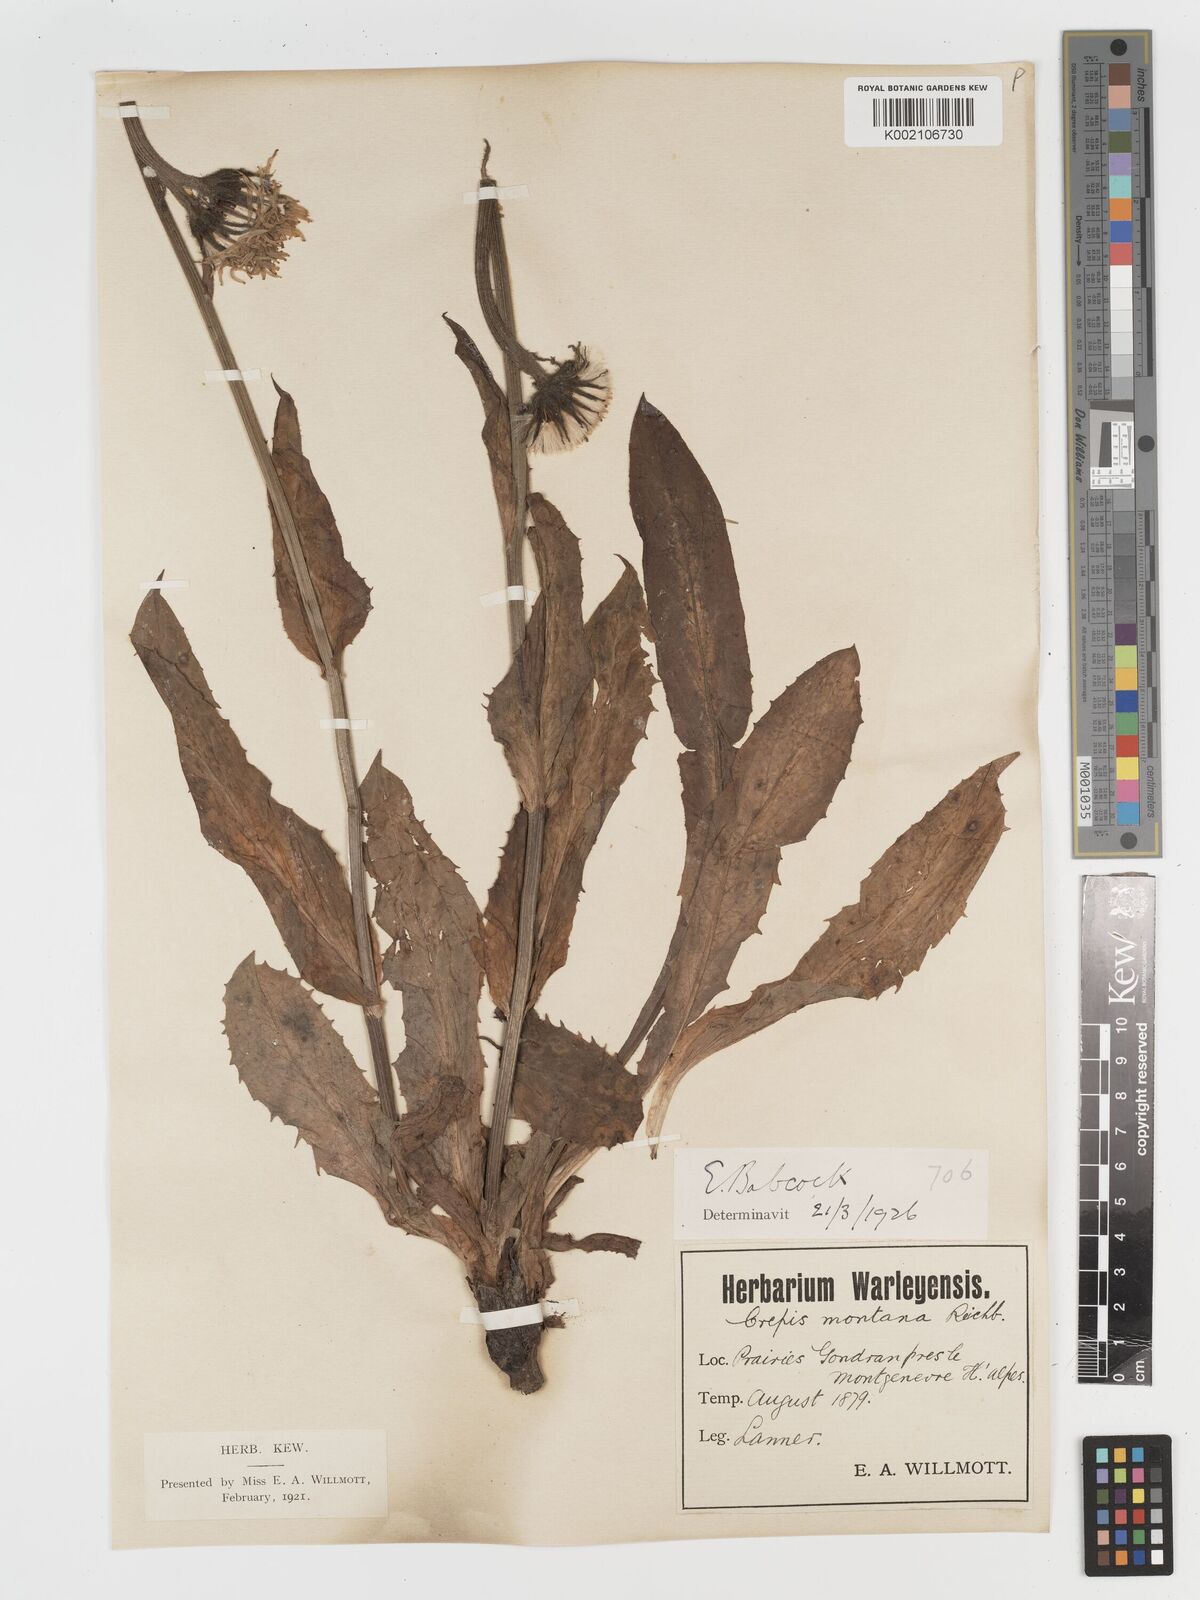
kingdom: Plantae
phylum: Tracheophyta
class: Magnoliopsida
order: Asterales
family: Asteraceae
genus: Crepis
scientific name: Crepis pontana
